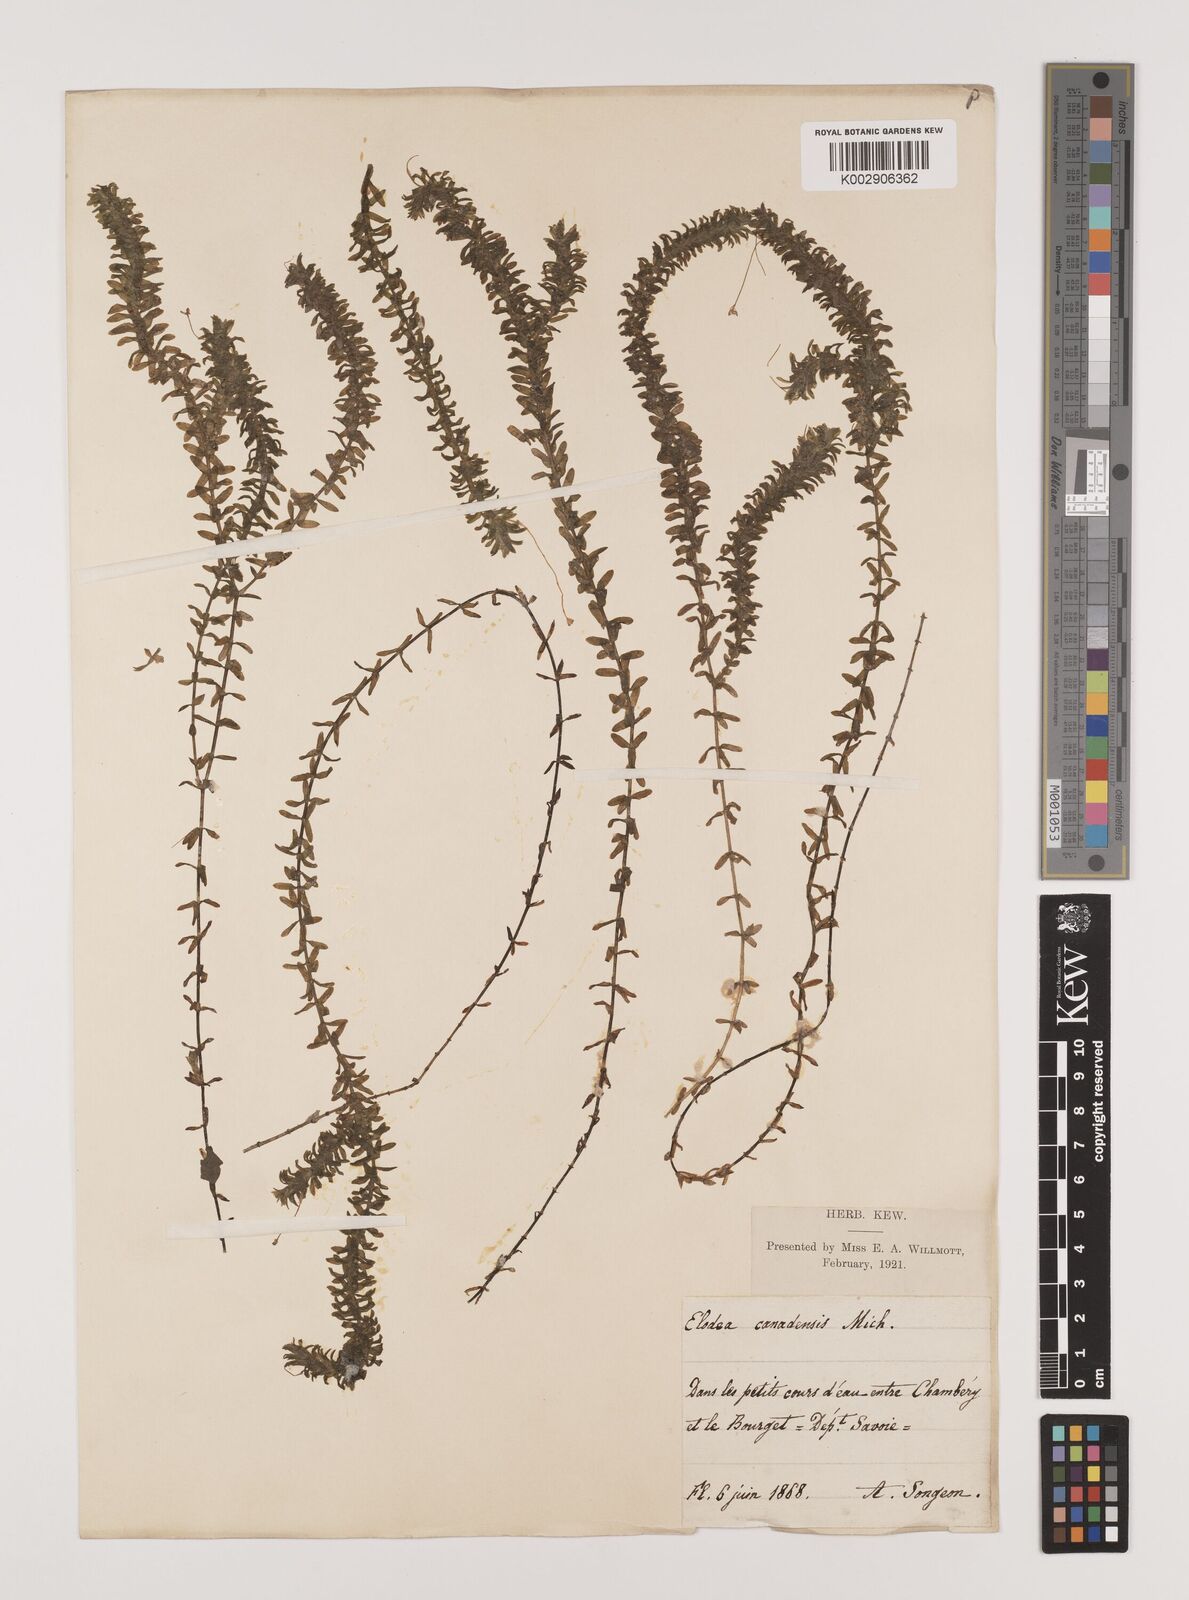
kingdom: Plantae
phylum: Tracheophyta
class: Liliopsida
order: Alismatales
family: Hydrocharitaceae
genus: Elodea
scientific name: Elodea canadensis
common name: Canadian waterweed
